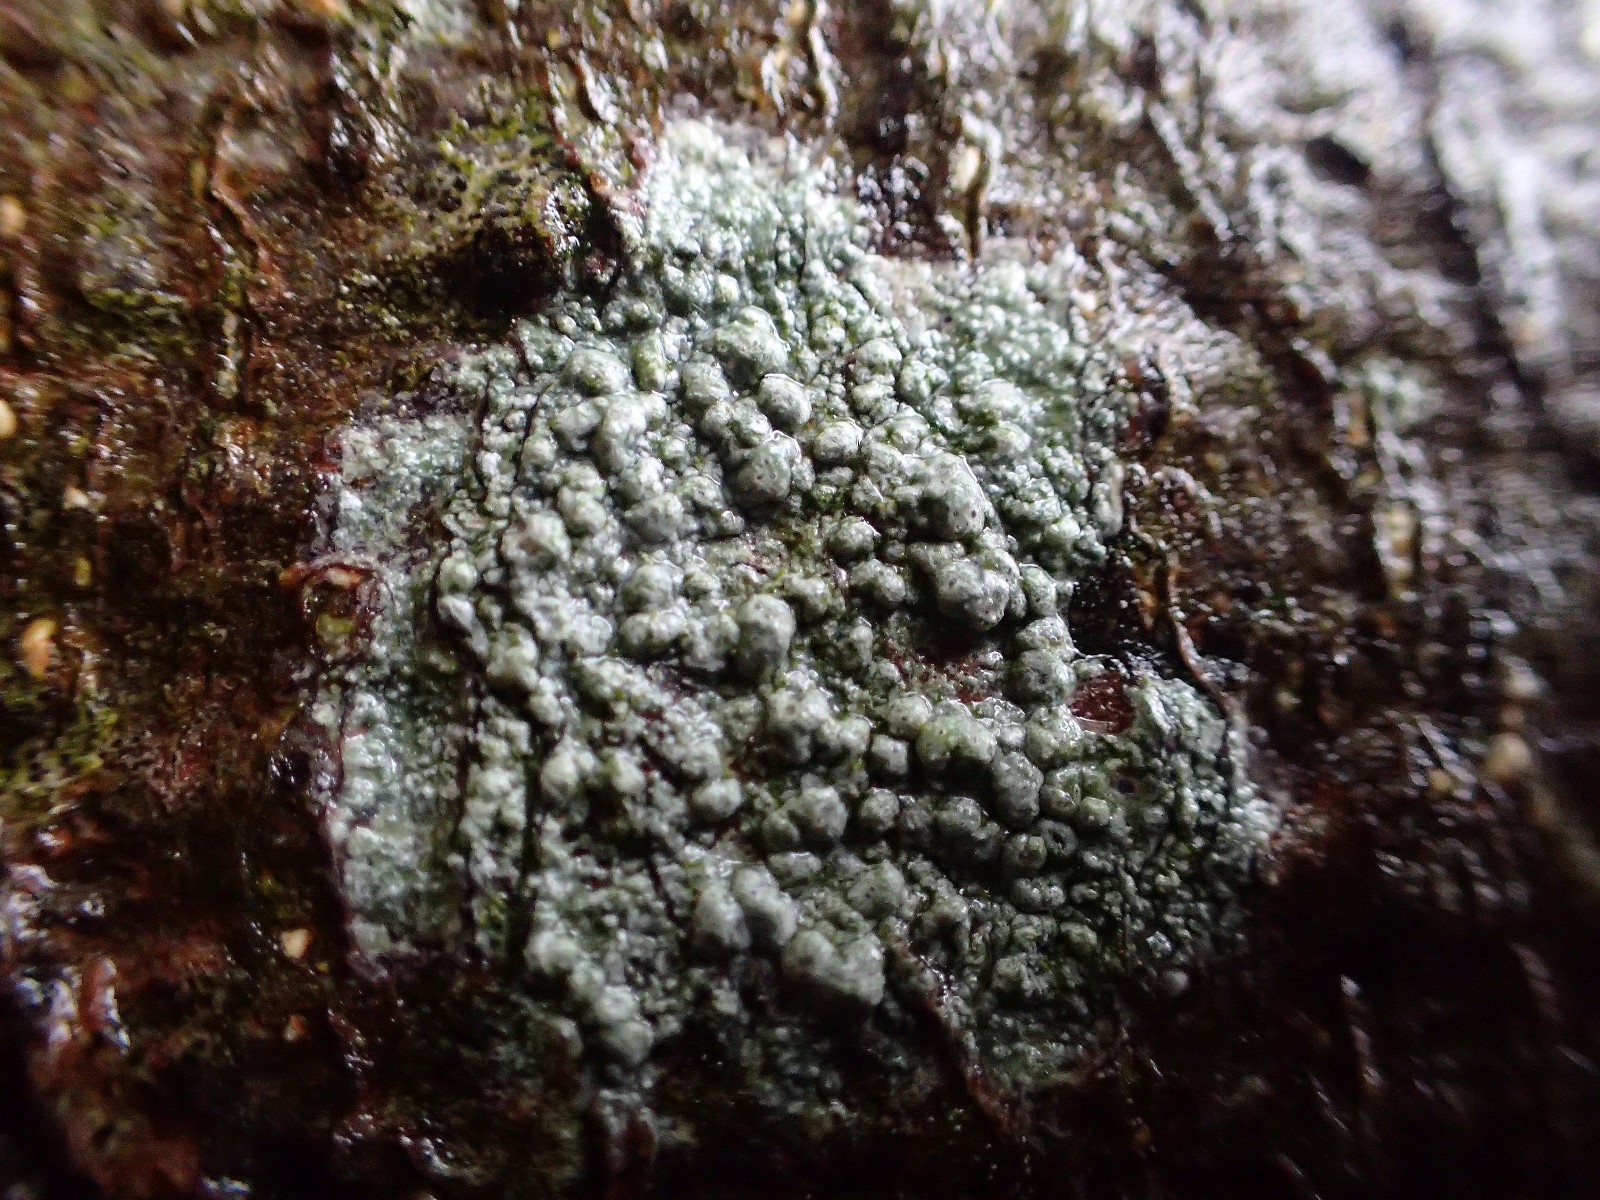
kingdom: Fungi
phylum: Ascomycota
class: Lecanoromycetes
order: Pertusariales
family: Pertusariaceae
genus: Pertusaria
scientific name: Pertusaria pertusa
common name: almindelig prikvortelav
